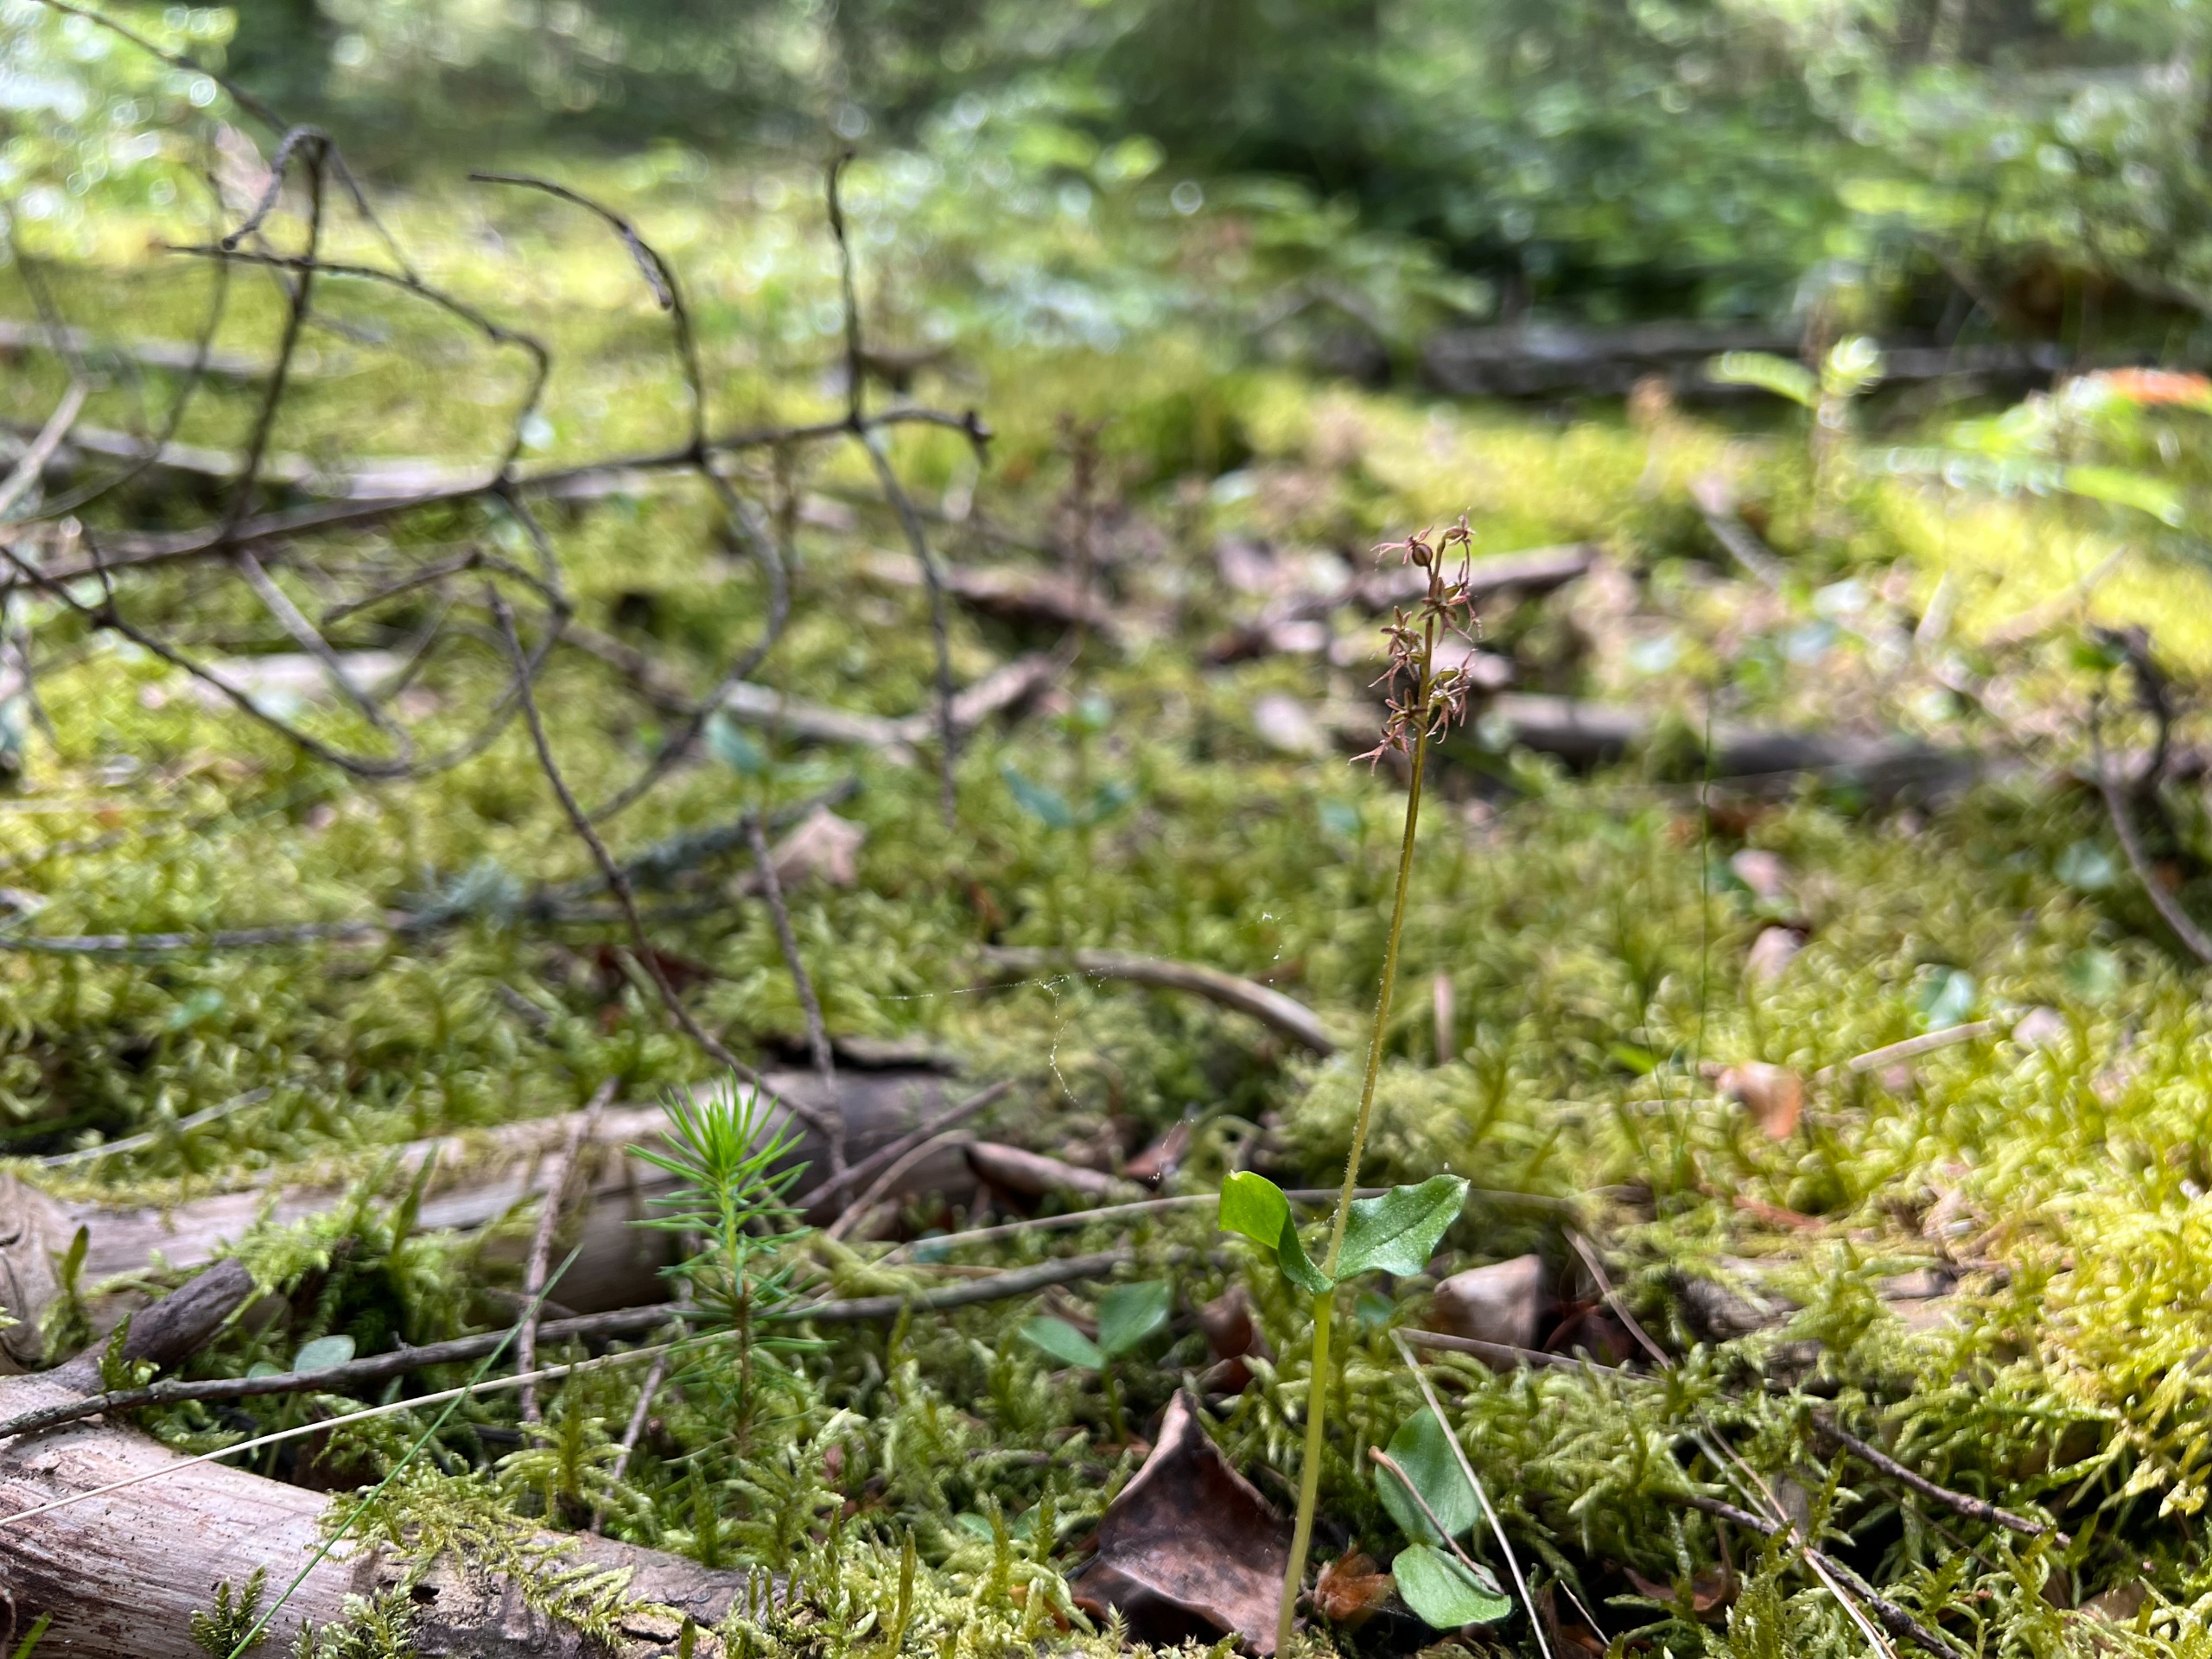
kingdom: Plantae
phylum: Tracheophyta
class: Liliopsida
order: Asparagales
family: Orchidaceae
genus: Neottia
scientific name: Neottia cordata
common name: Hjertebladet fliglæbe
